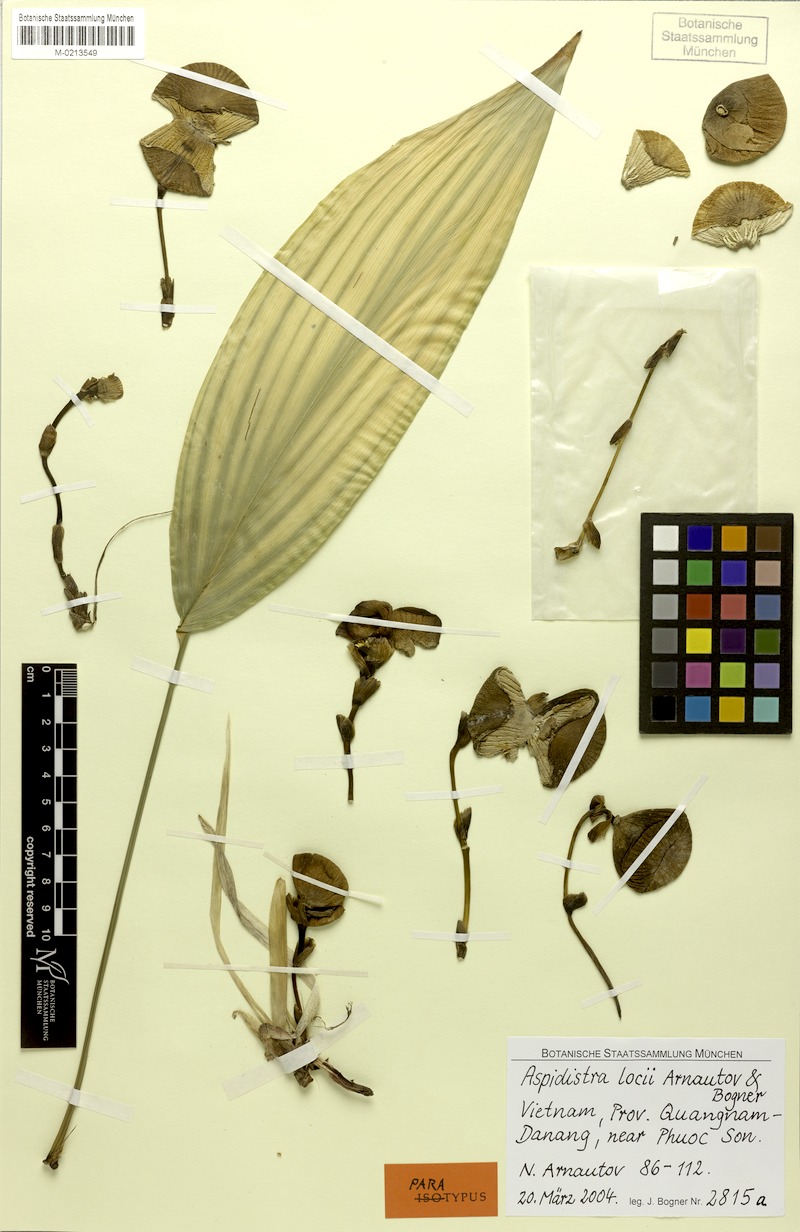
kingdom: Plantae
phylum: Tracheophyta
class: Liliopsida
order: Asparagales
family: Asparagaceae
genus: Aspidistra
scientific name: Aspidistra locii
